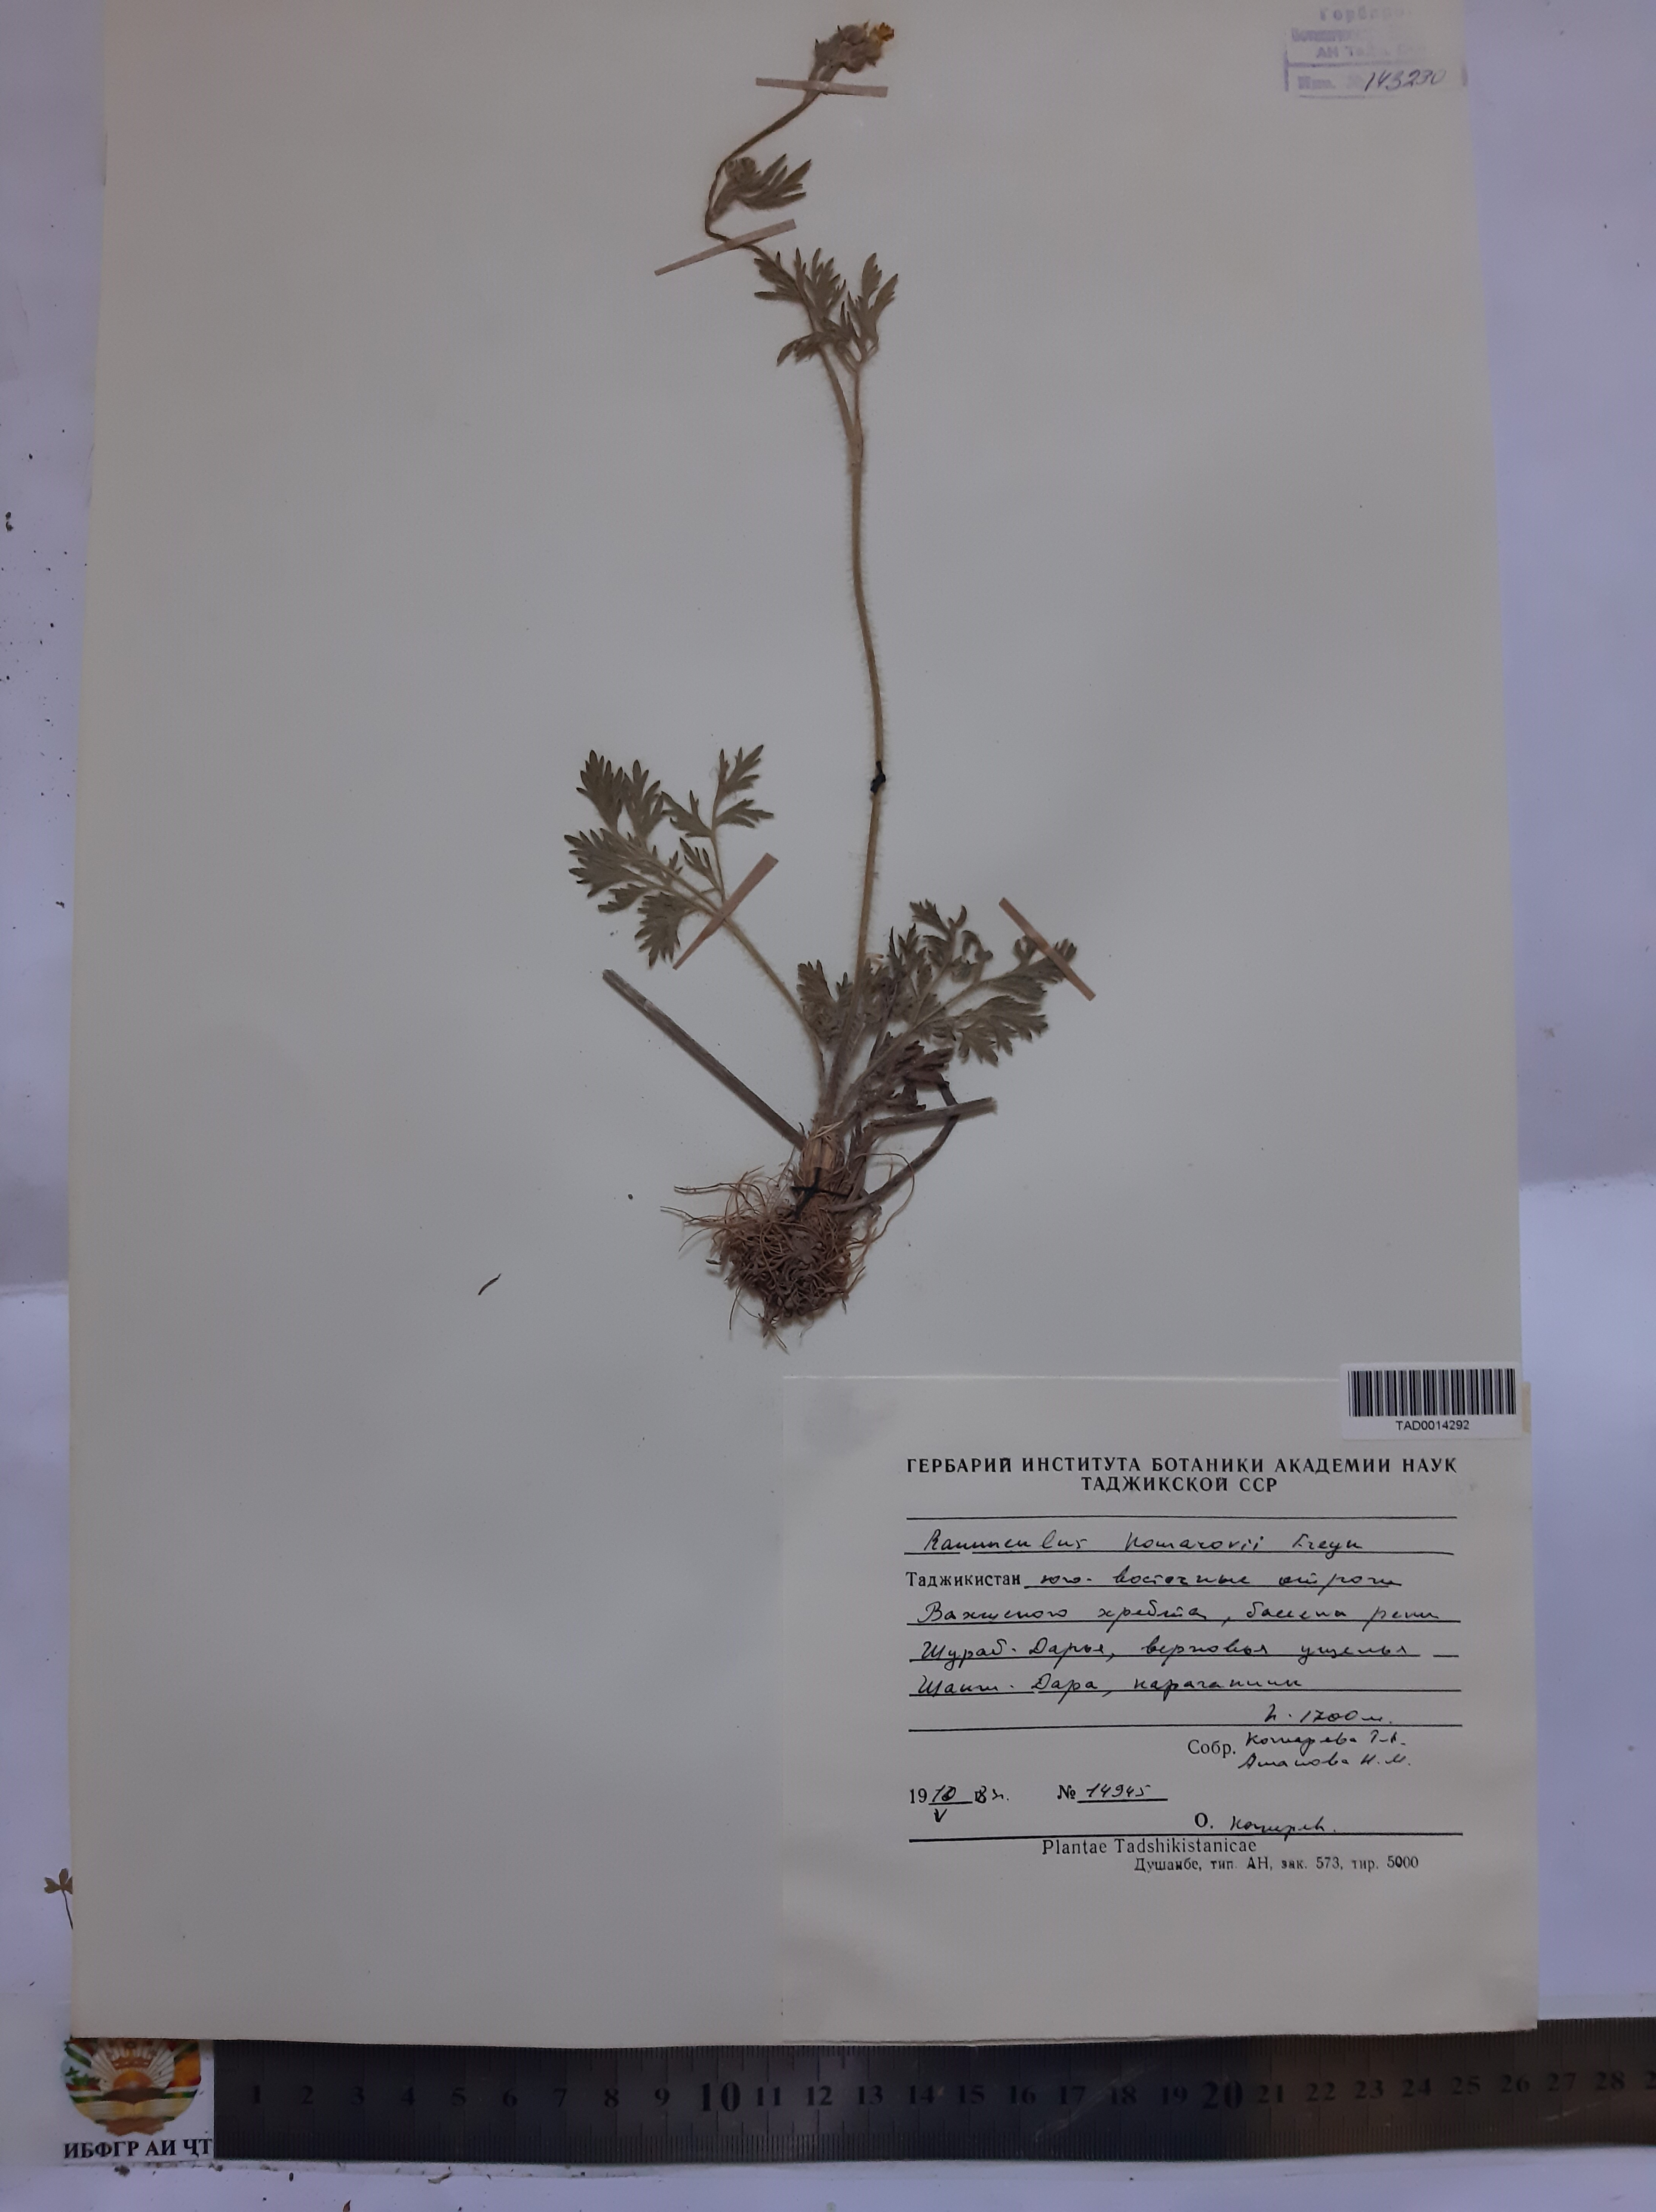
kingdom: Plantae
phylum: Tracheophyta
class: Magnoliopsida
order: Ranunculales
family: Ranunculaceae
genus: Ranunculus
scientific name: Ranunculus komarovii
